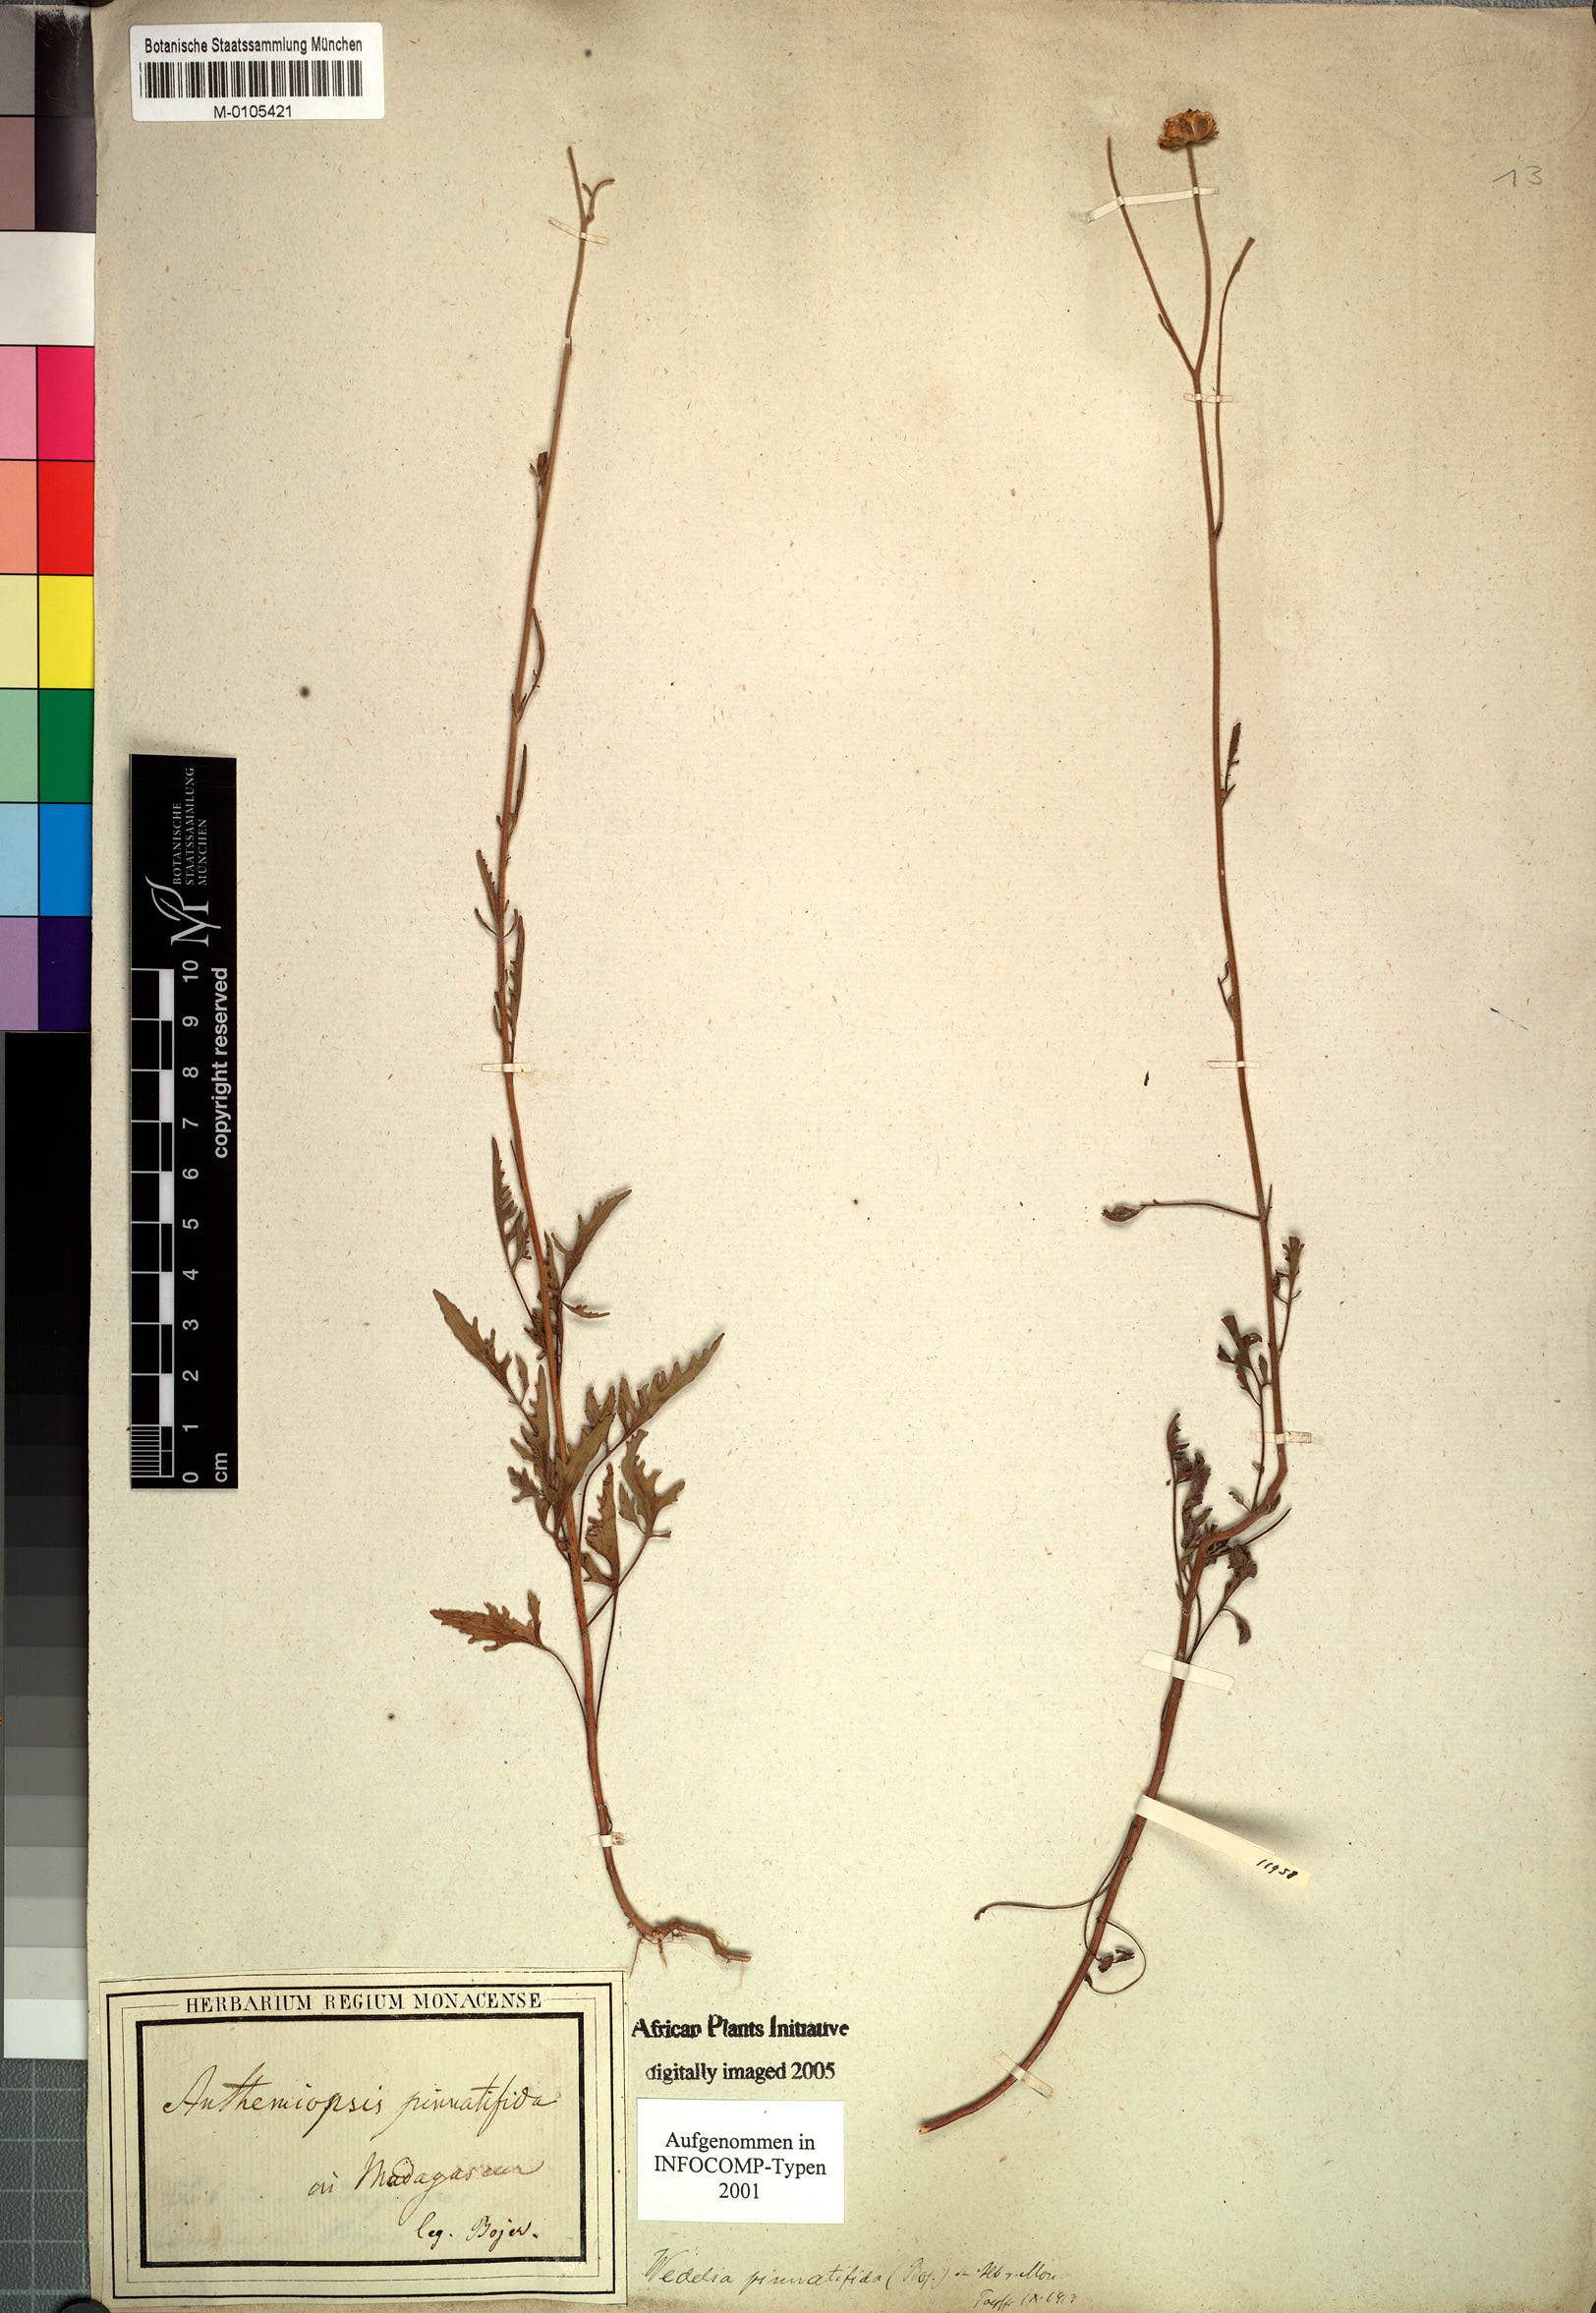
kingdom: Plantae
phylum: Tracheophyta
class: Magnoliopsida
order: Asterales
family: Asteraceae
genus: Wedelia
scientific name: Wedelia
